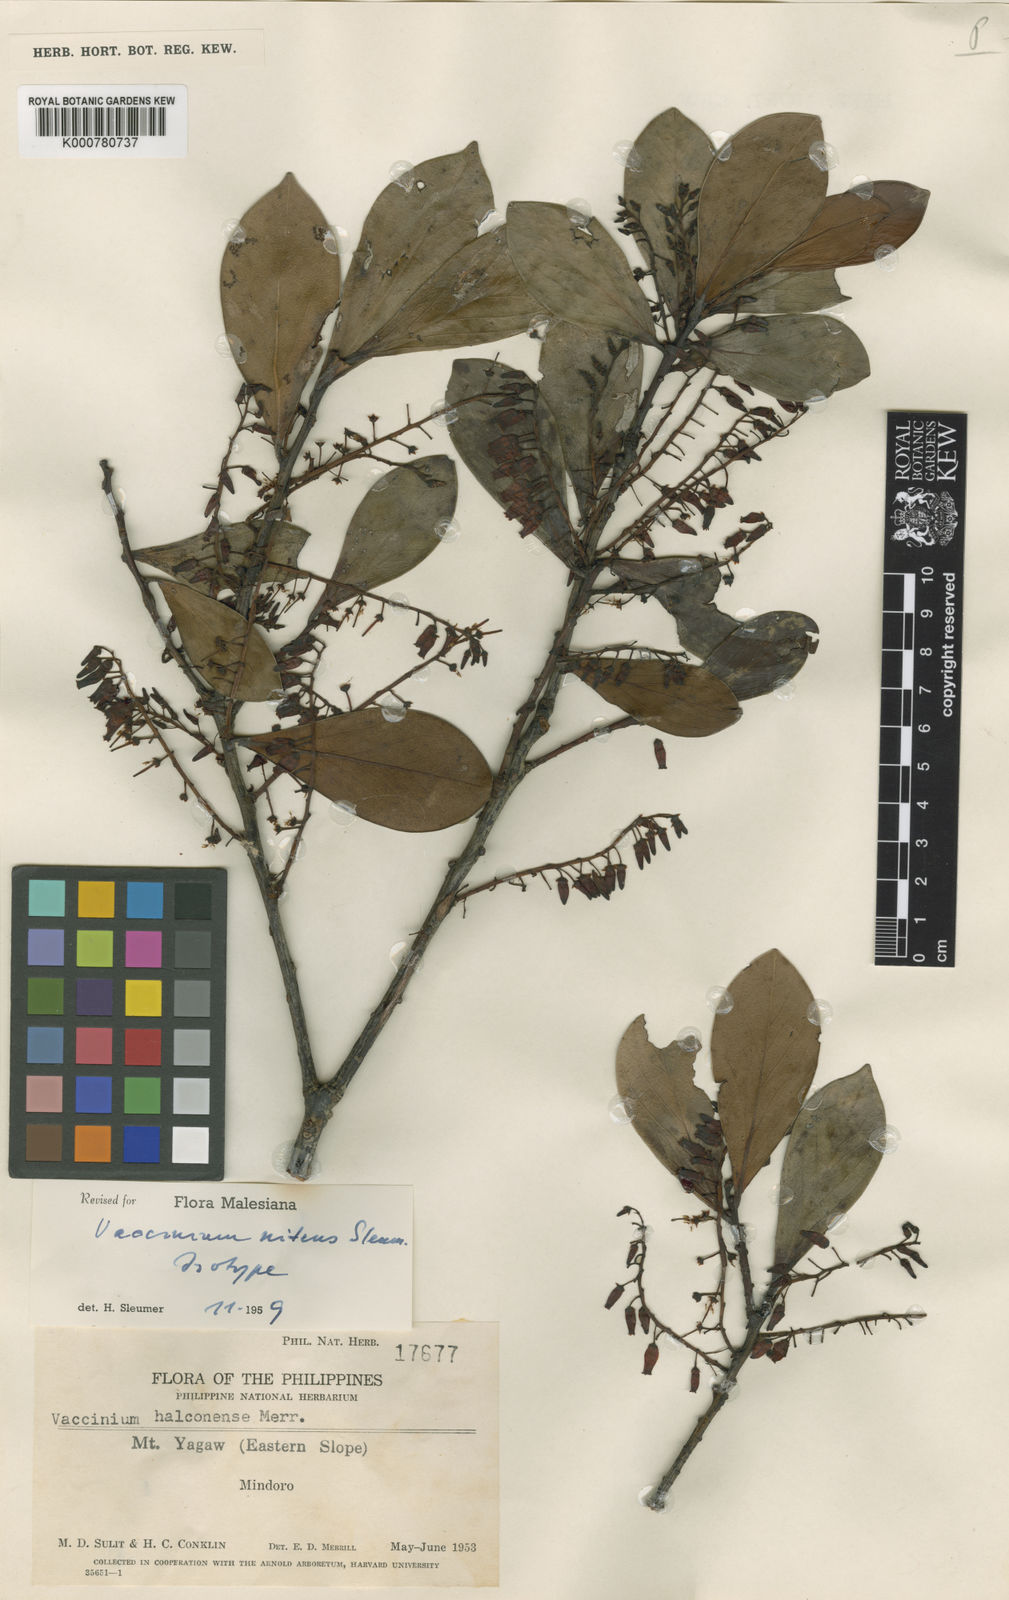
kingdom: Plantae
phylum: Tracheophyta
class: Magnoliopsida
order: Ericales
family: Ericaceae
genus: Vaccinium
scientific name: Vaccinium nitens
